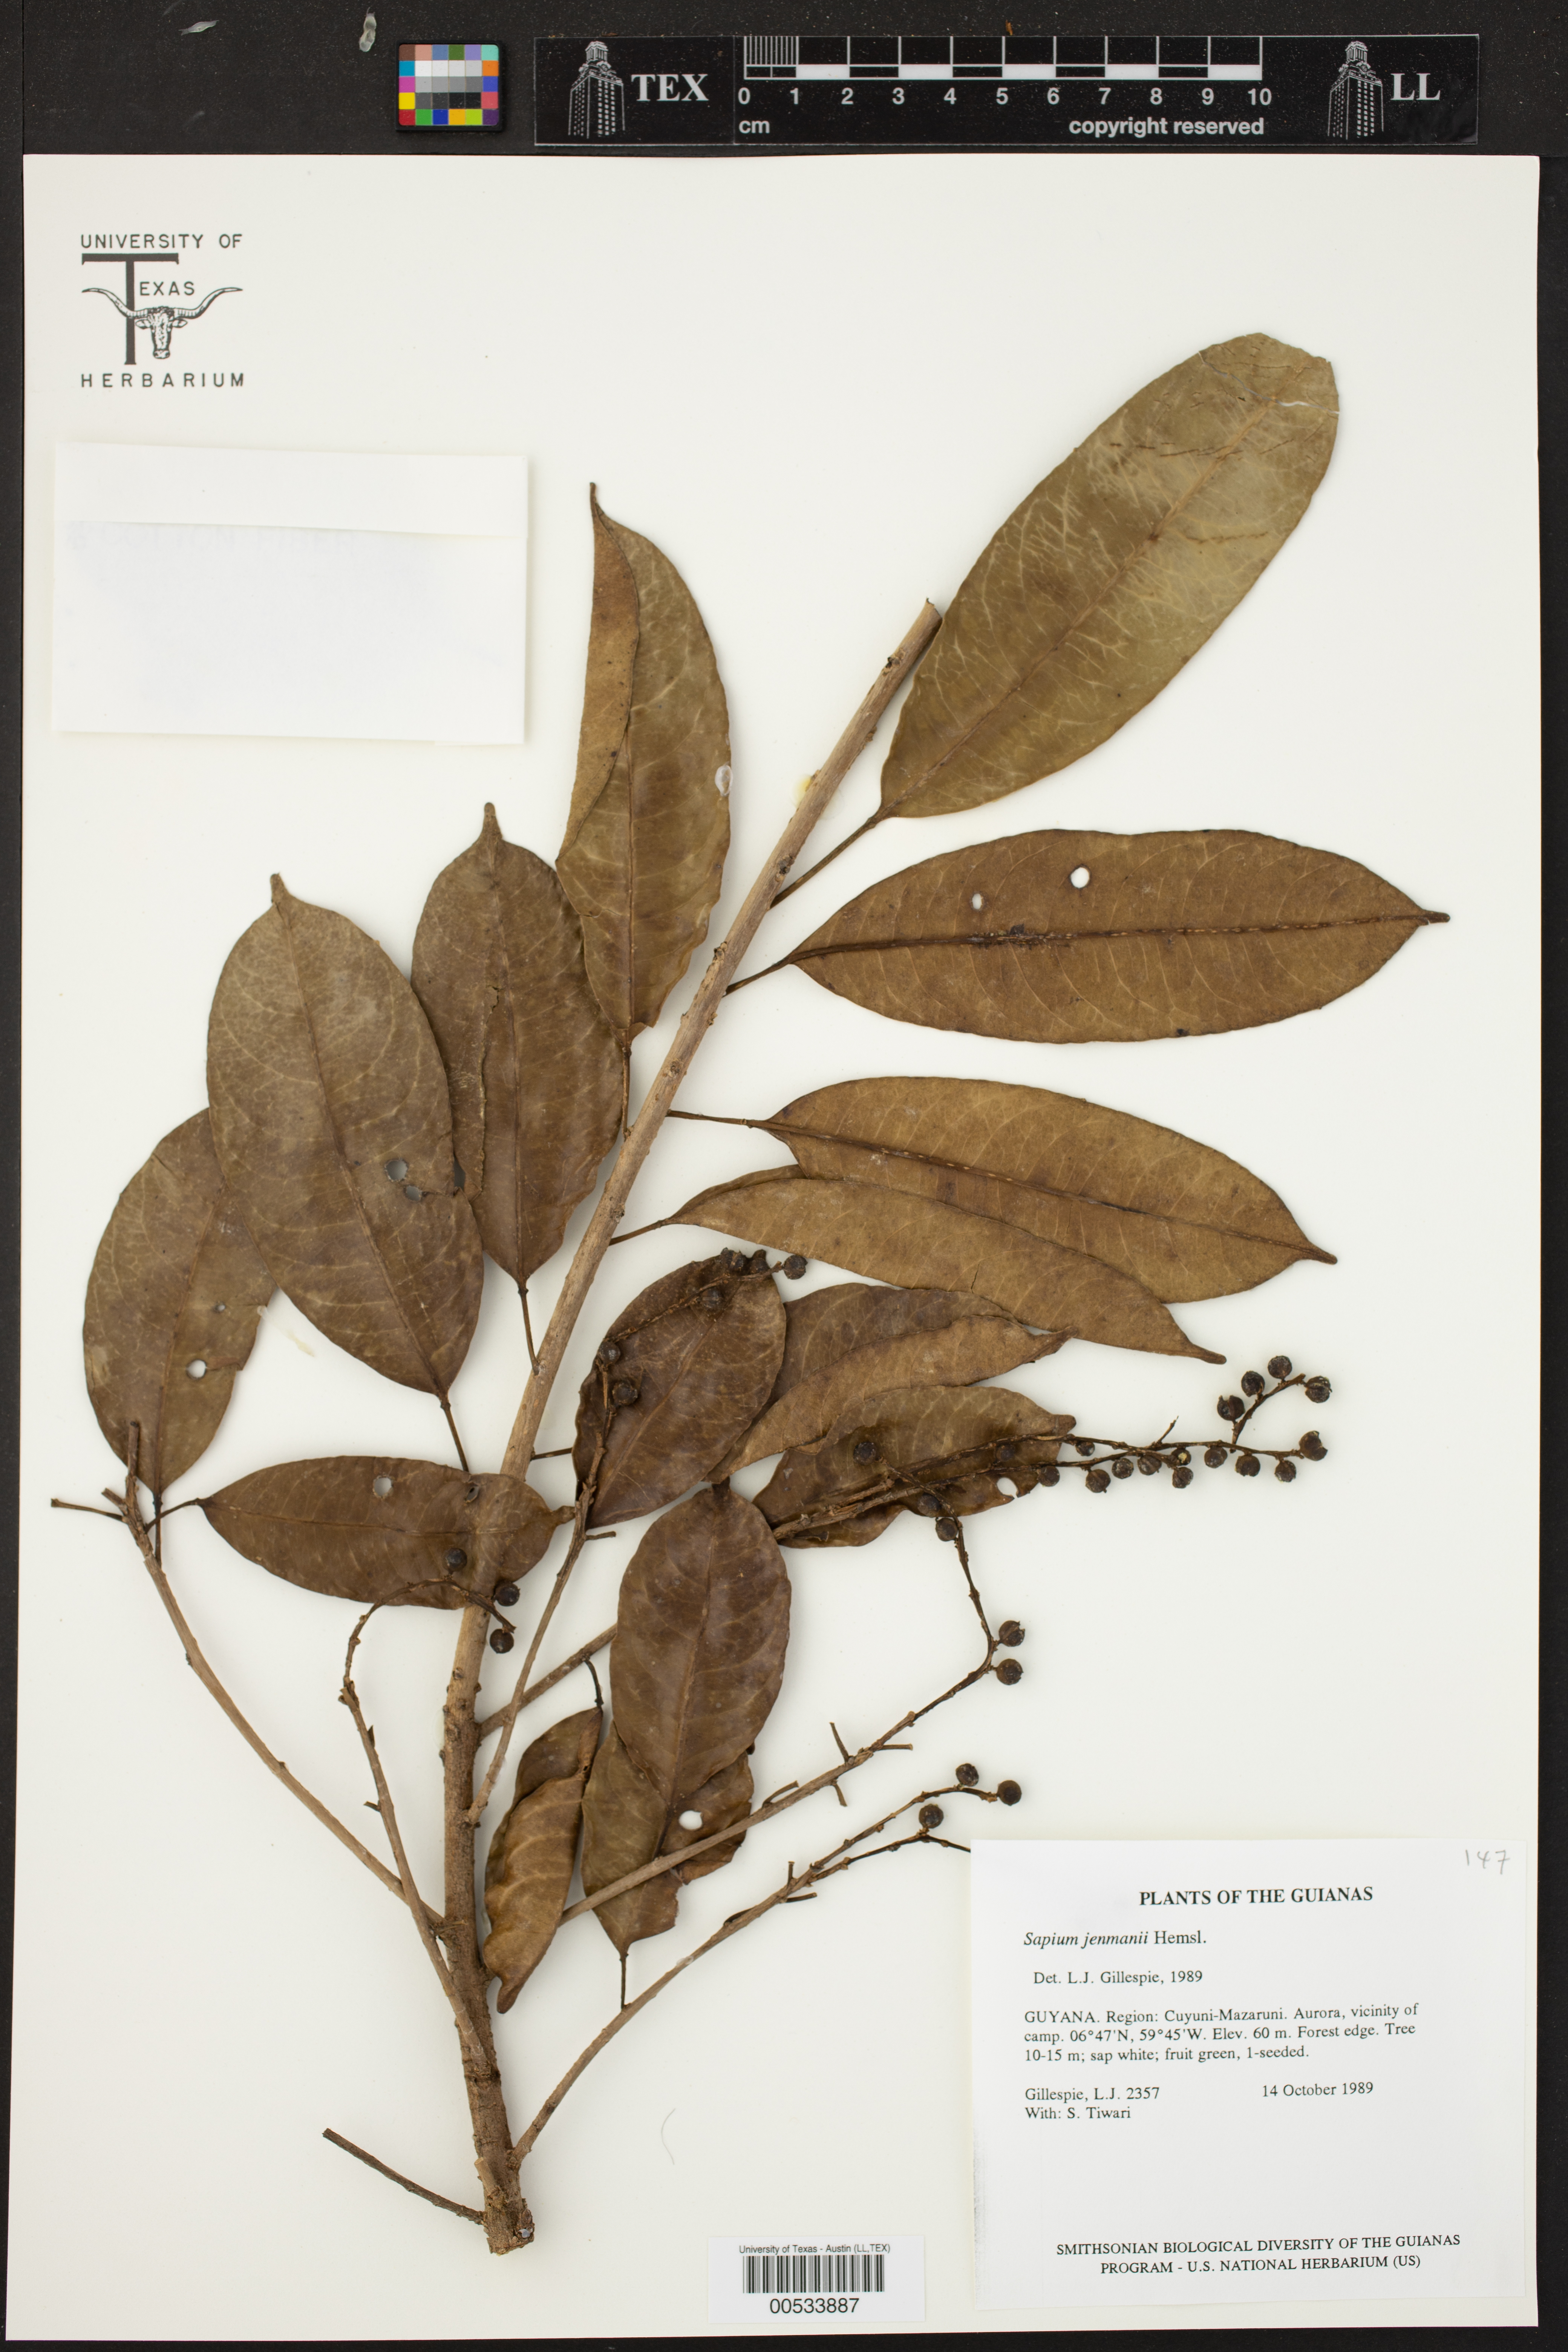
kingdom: Plantae
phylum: Tracheophyta
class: Magnoliopsida
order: Malpighiales
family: Euphorbiaceae
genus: Sapium
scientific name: Sapium
